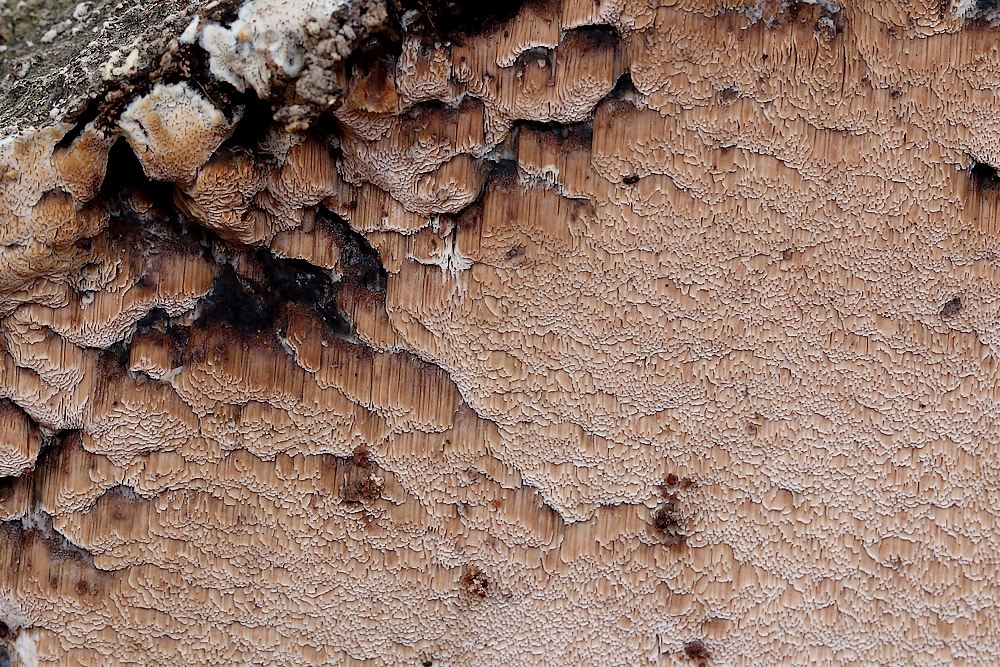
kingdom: Fungi
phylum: Basidiomycota
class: Agaricomycetes
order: Polyporales
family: Meruliaceae
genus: Mycoacia
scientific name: Mycoacia gilvescens
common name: rosa pastelporesvamp
